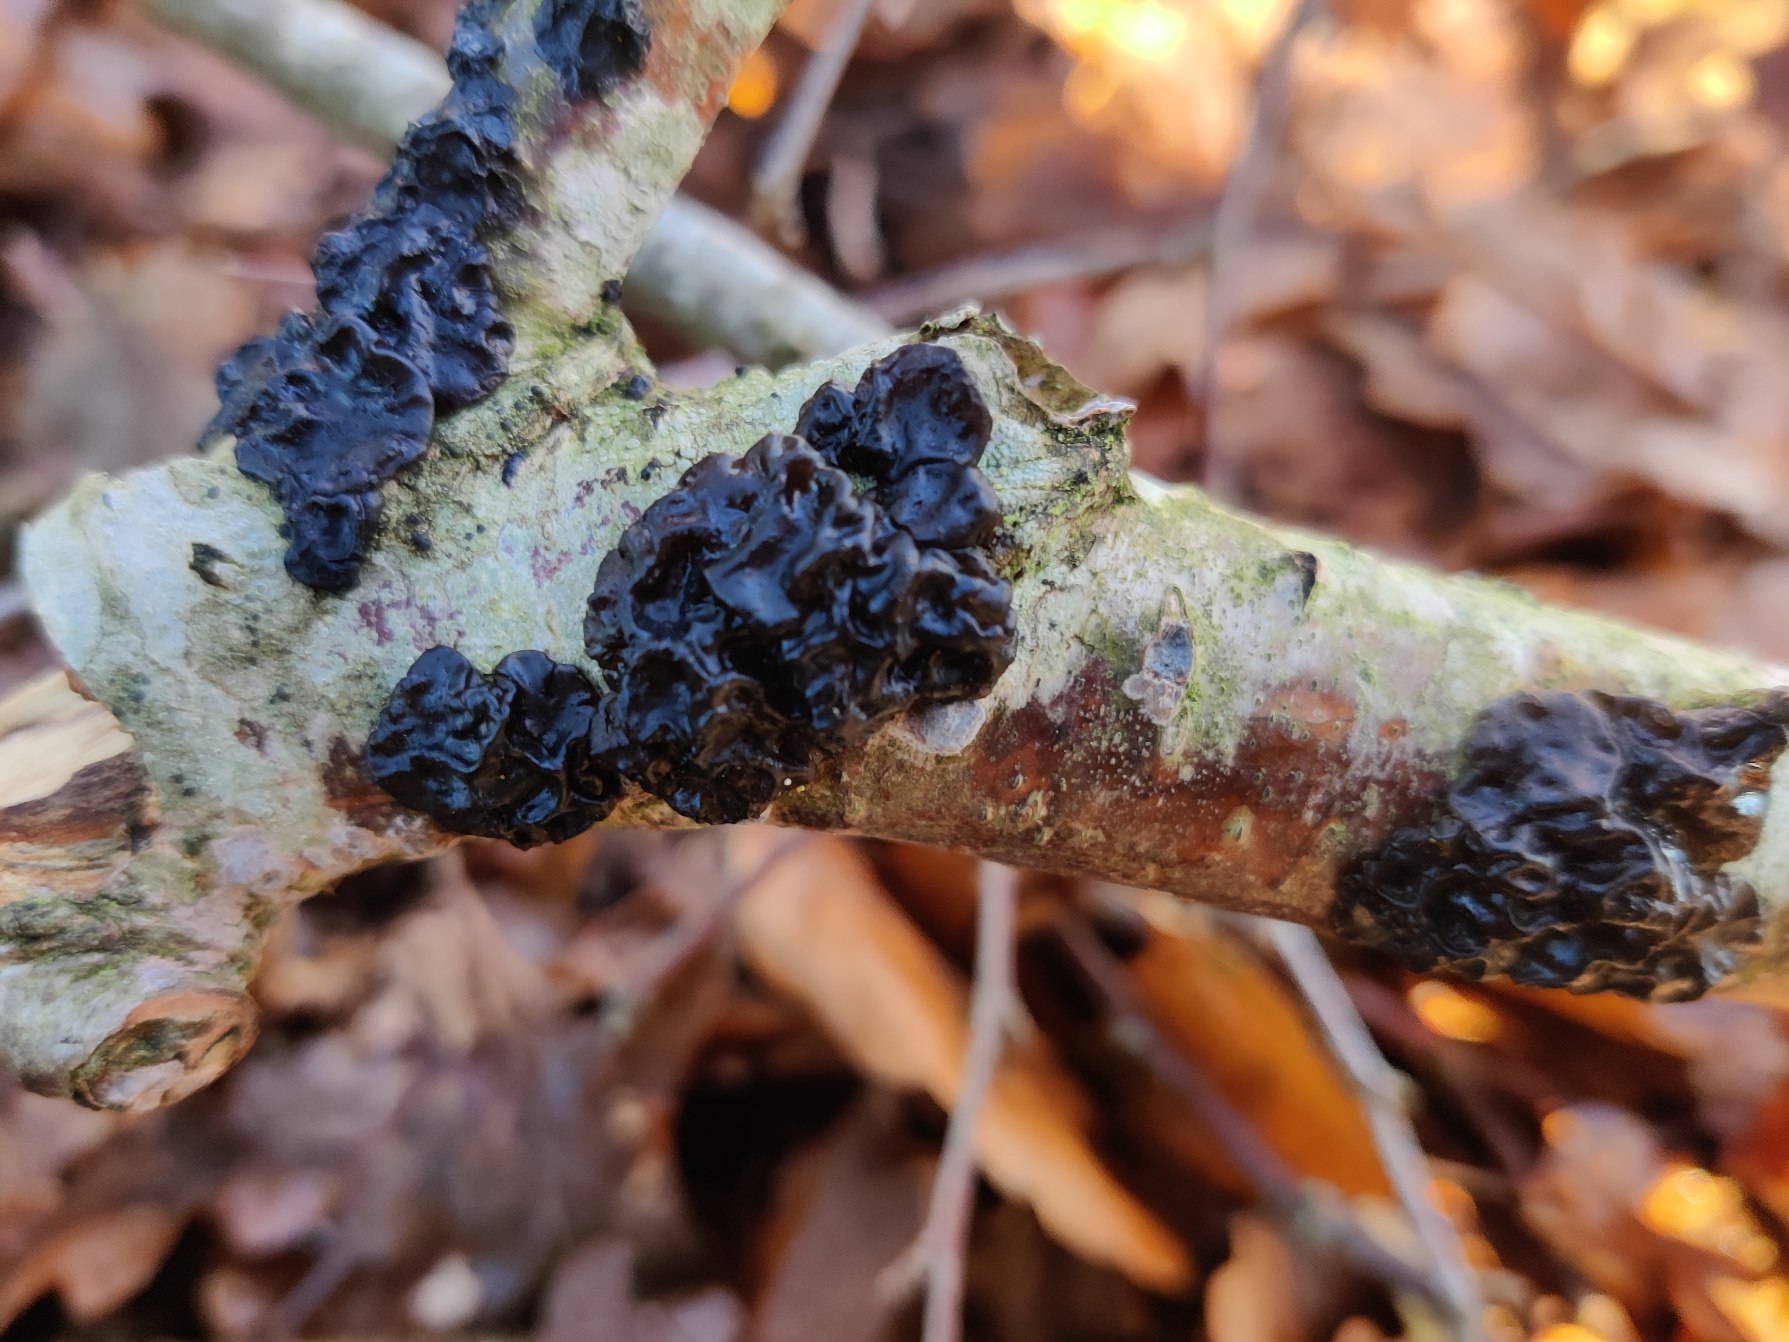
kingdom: Fungi
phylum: Basidiomycota
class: Agaricomycetes
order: Auriculariales
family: Auriculariaceae
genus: Exidia
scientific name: Exidia nigricans
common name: Almindelig bævretop
